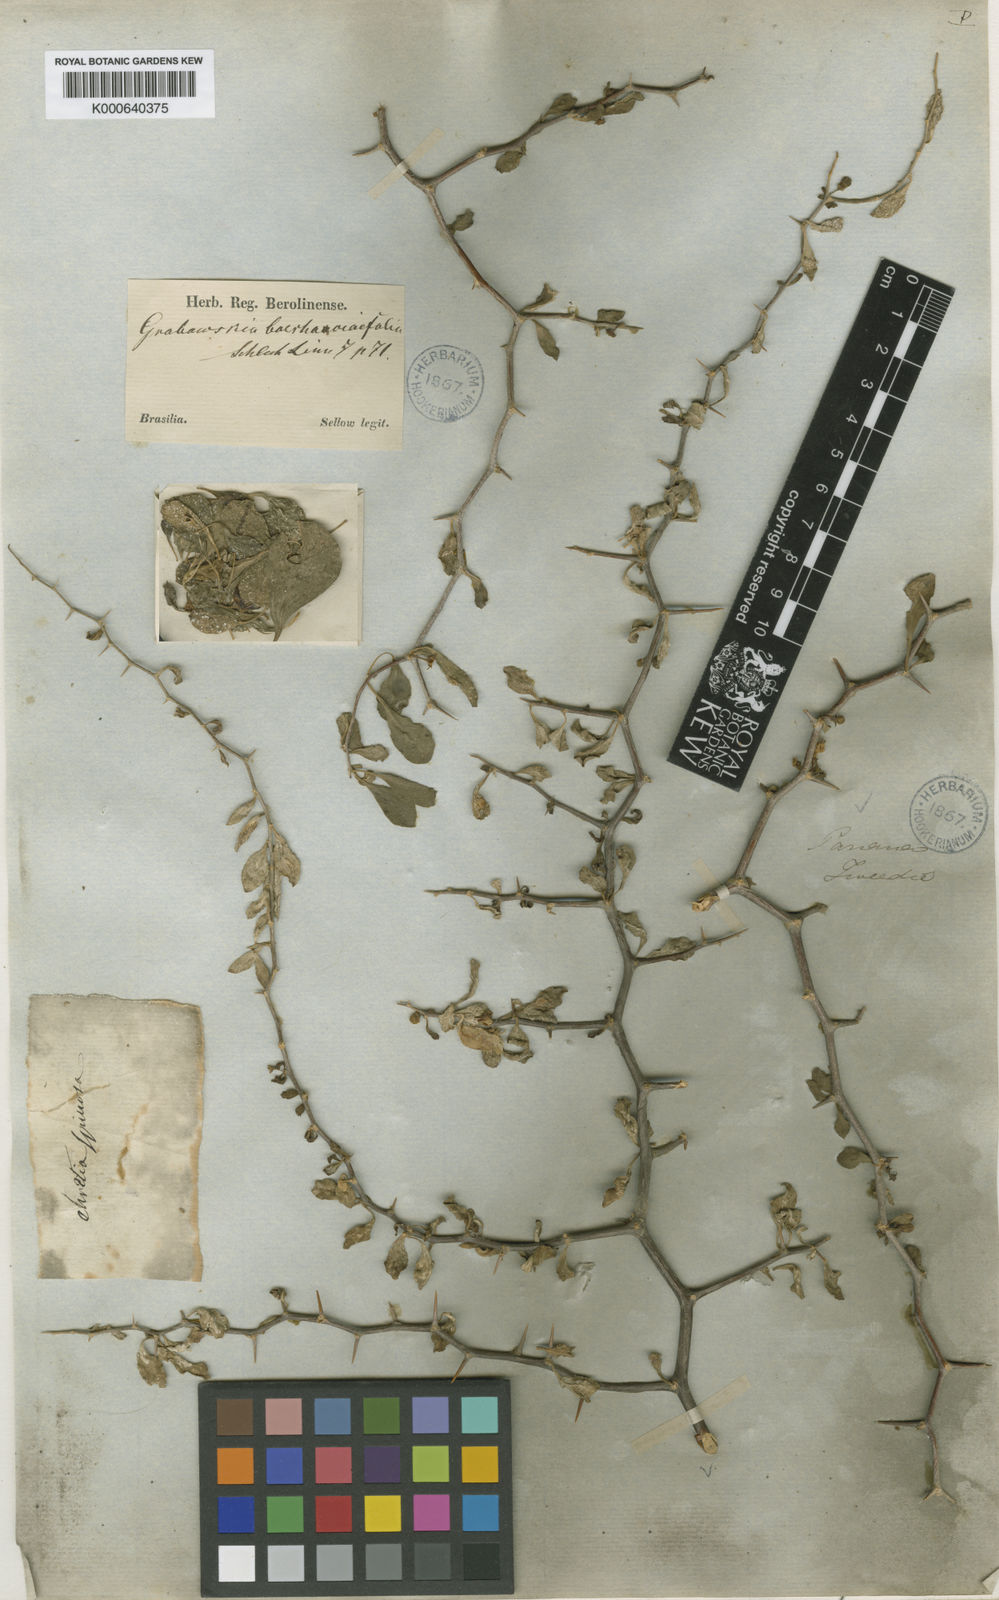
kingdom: Plantae
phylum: Tracheophyta
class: Magnoliopsida
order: Solanales
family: Solanaceae
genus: Lycium
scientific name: Lycium
